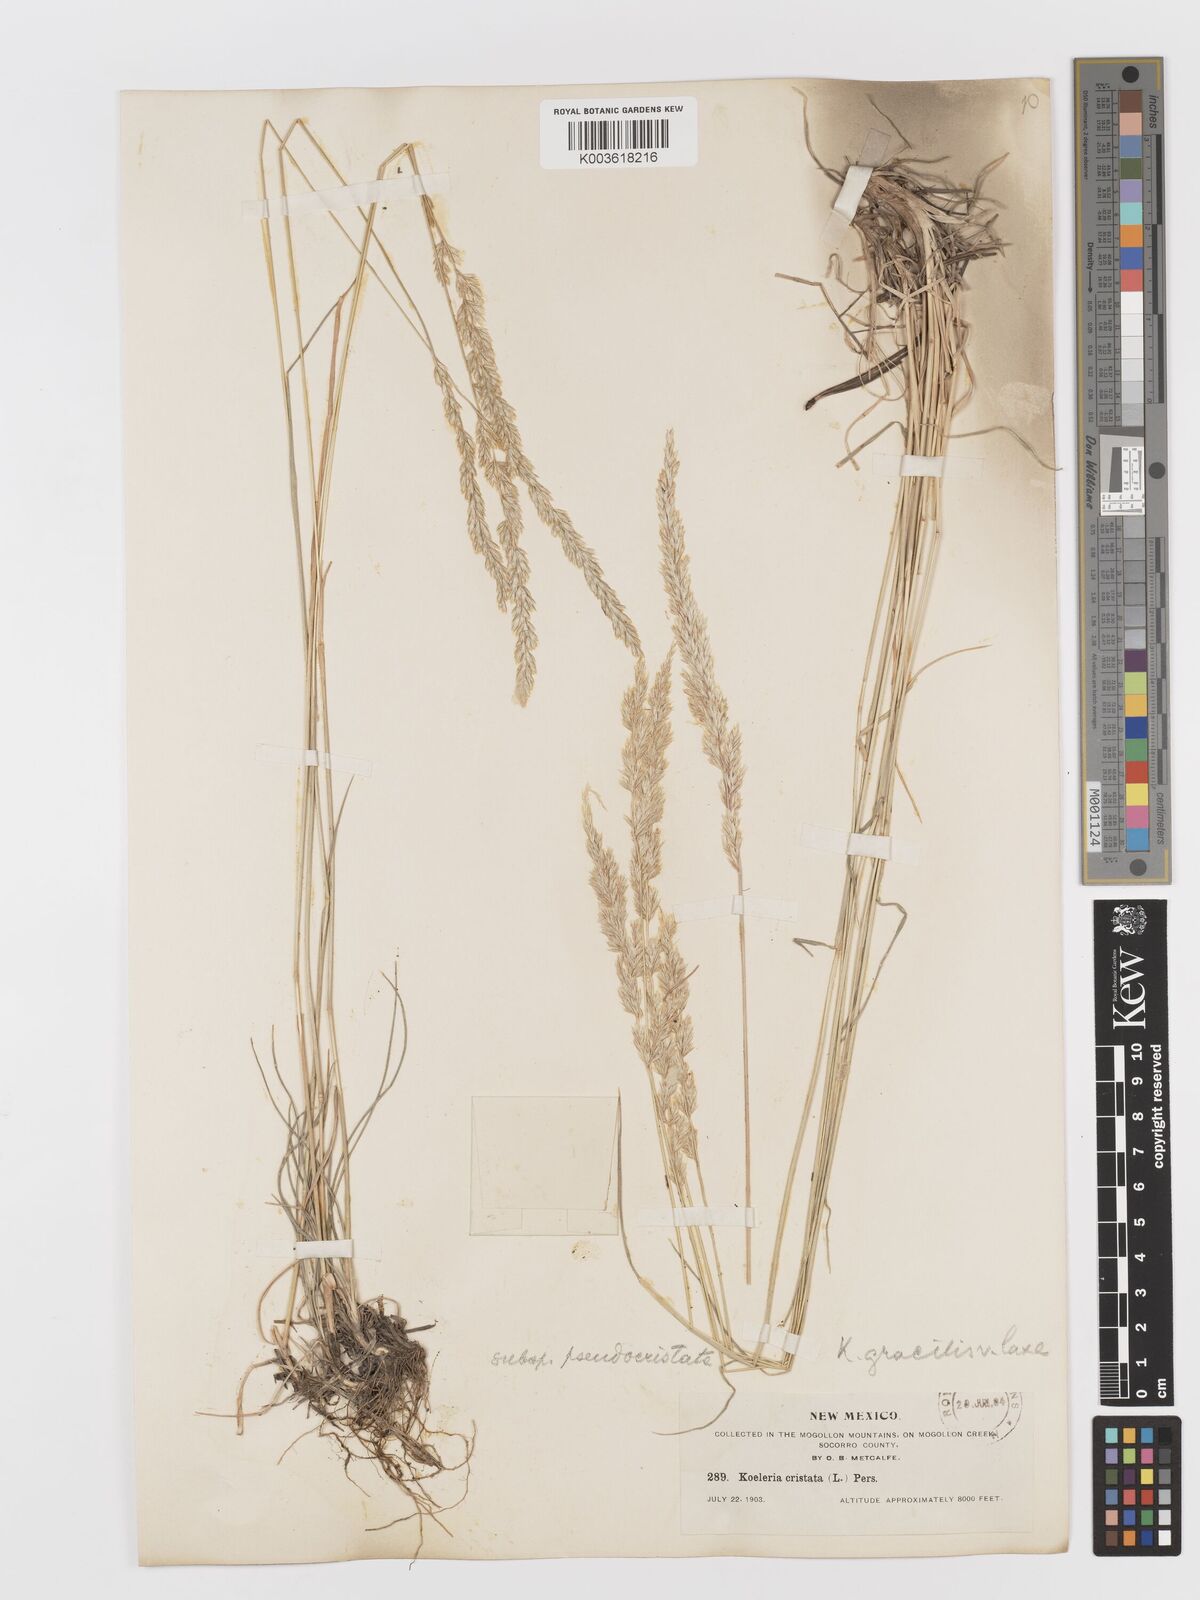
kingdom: Plantae
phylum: Tracheophyta
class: Liliopsida
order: Poales
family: Poaceae
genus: Koeleria
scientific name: Koeleria macrantha
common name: Crested hair-grass
